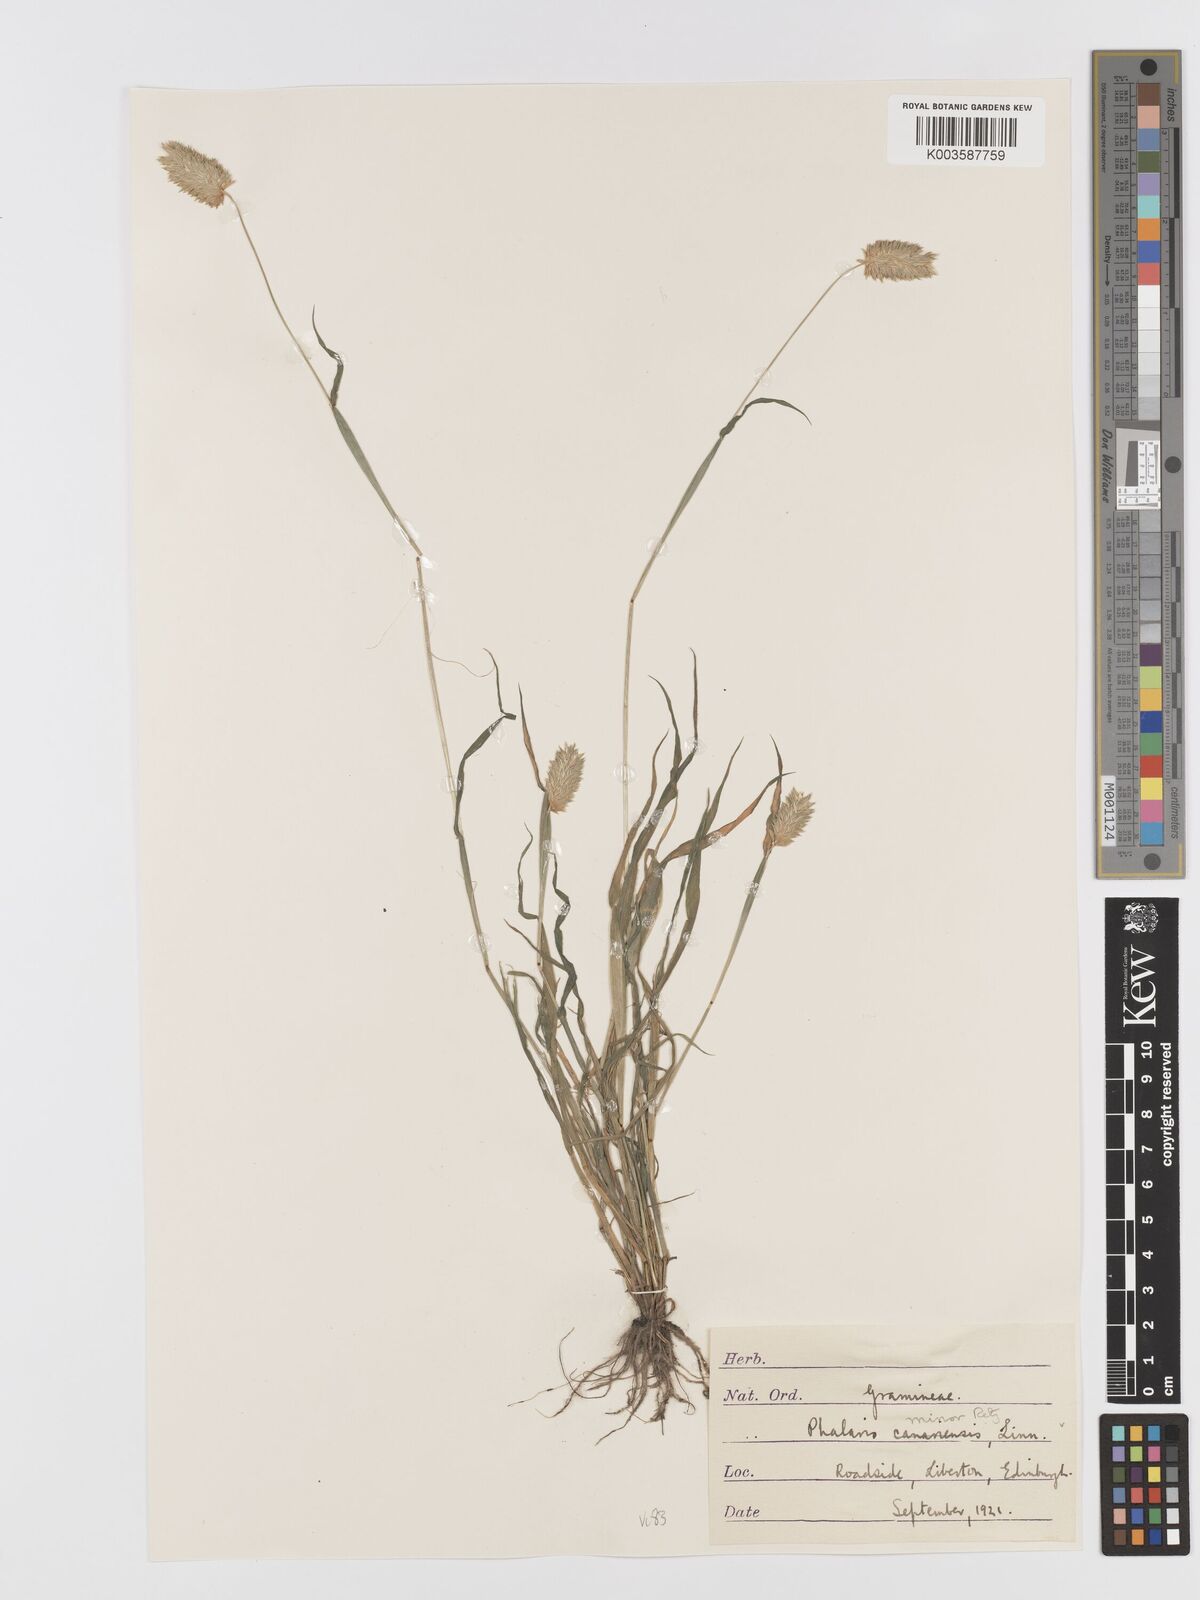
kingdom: Plantae
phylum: Tracheophyta
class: Liliopsida
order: Poales
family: Poaceae
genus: Phalaris
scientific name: Phalaris minor
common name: Littleseed canarygrass
